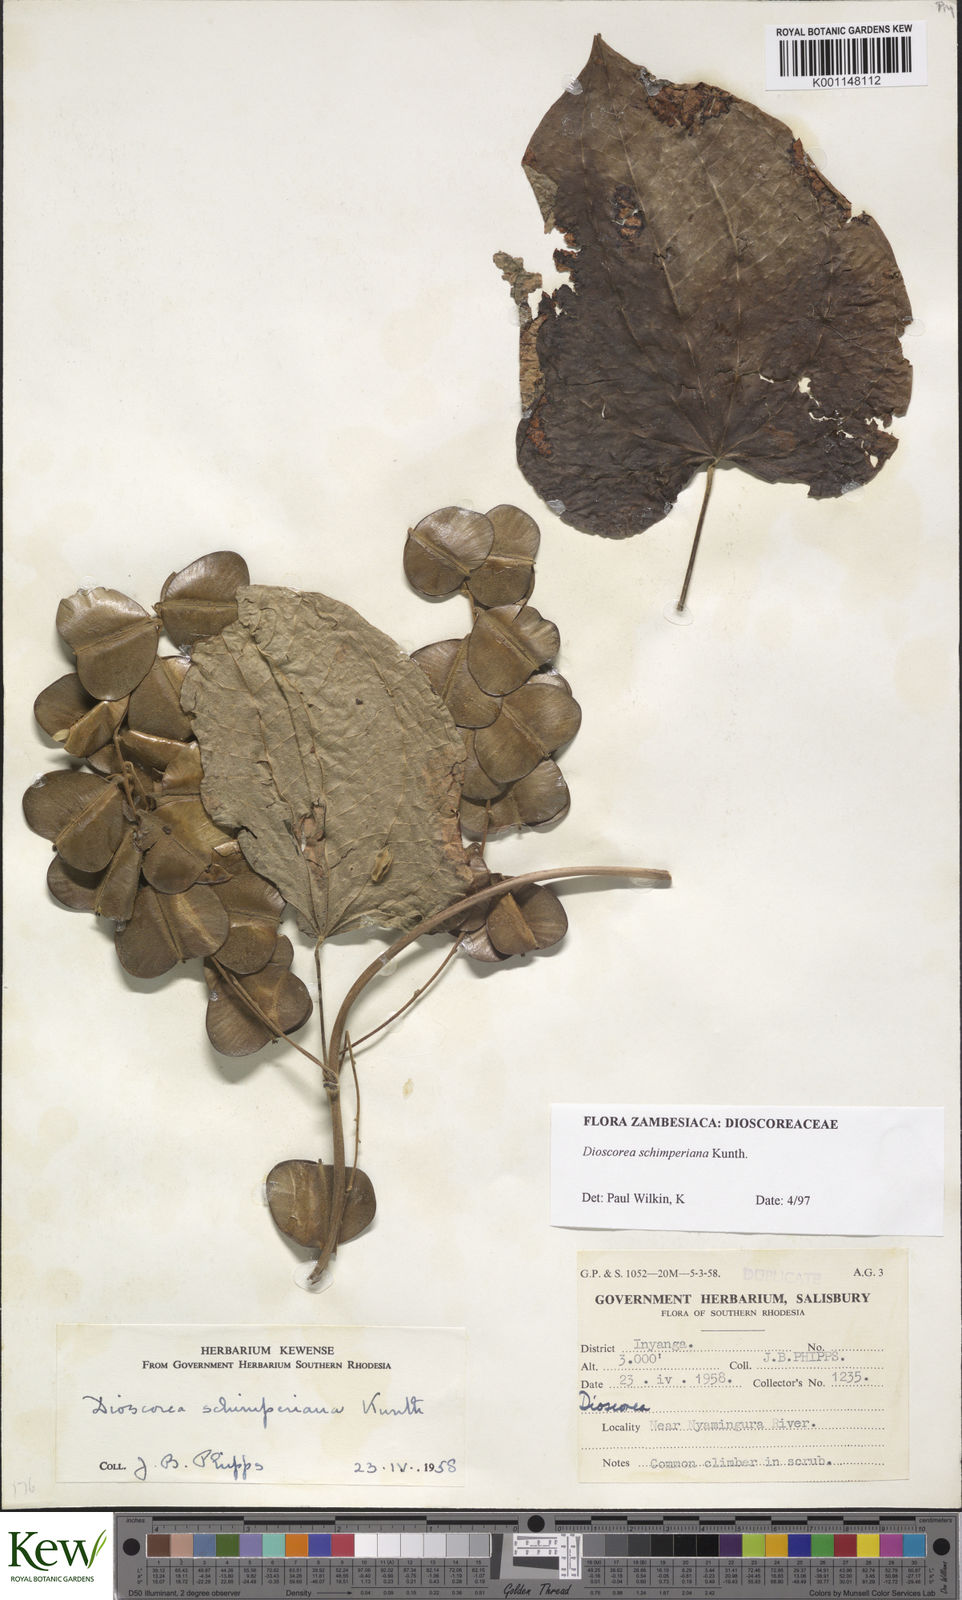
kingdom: Plantae
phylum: Tracheophyta
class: Liliopsida
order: Dioscoreales
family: Dioscoreaceae
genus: Dioscorea
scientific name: Dioscorea schimperiana
